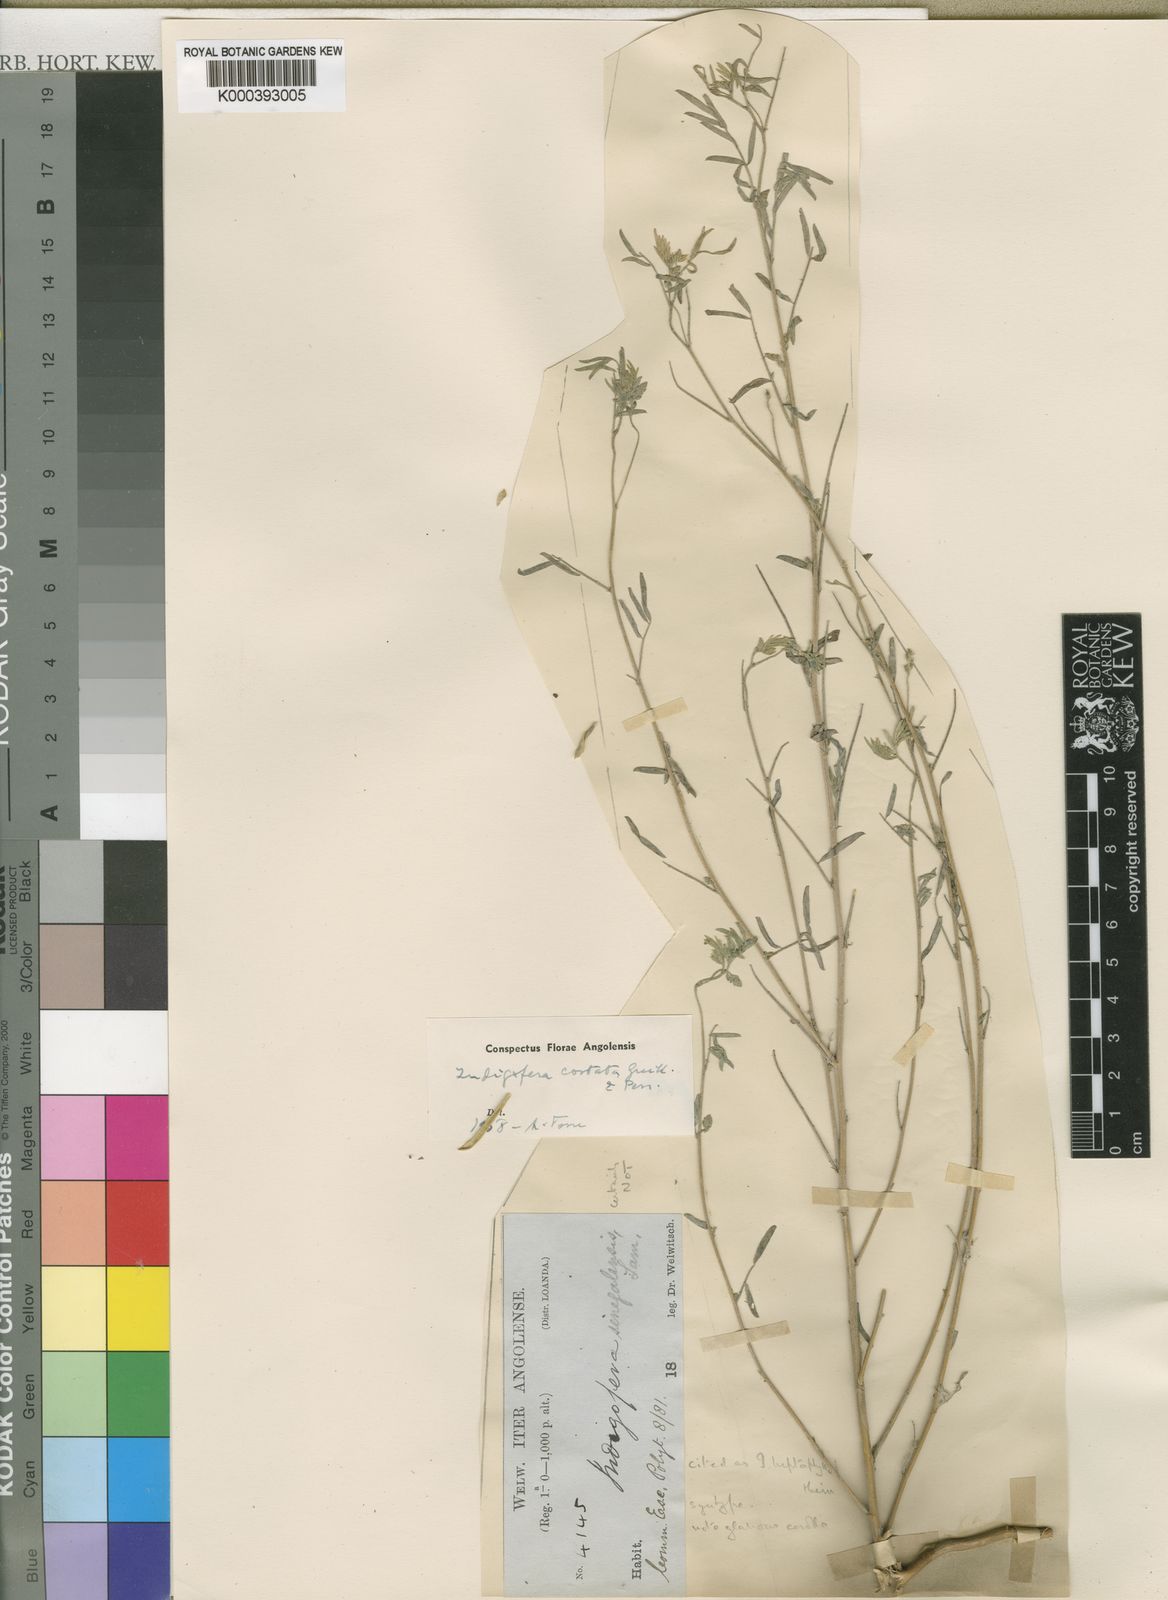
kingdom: Plantae
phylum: Tracheophyta
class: Magnoliopsida
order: Fabales
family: Fabaceae
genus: Indigastrum
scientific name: Indigastrum costatum
